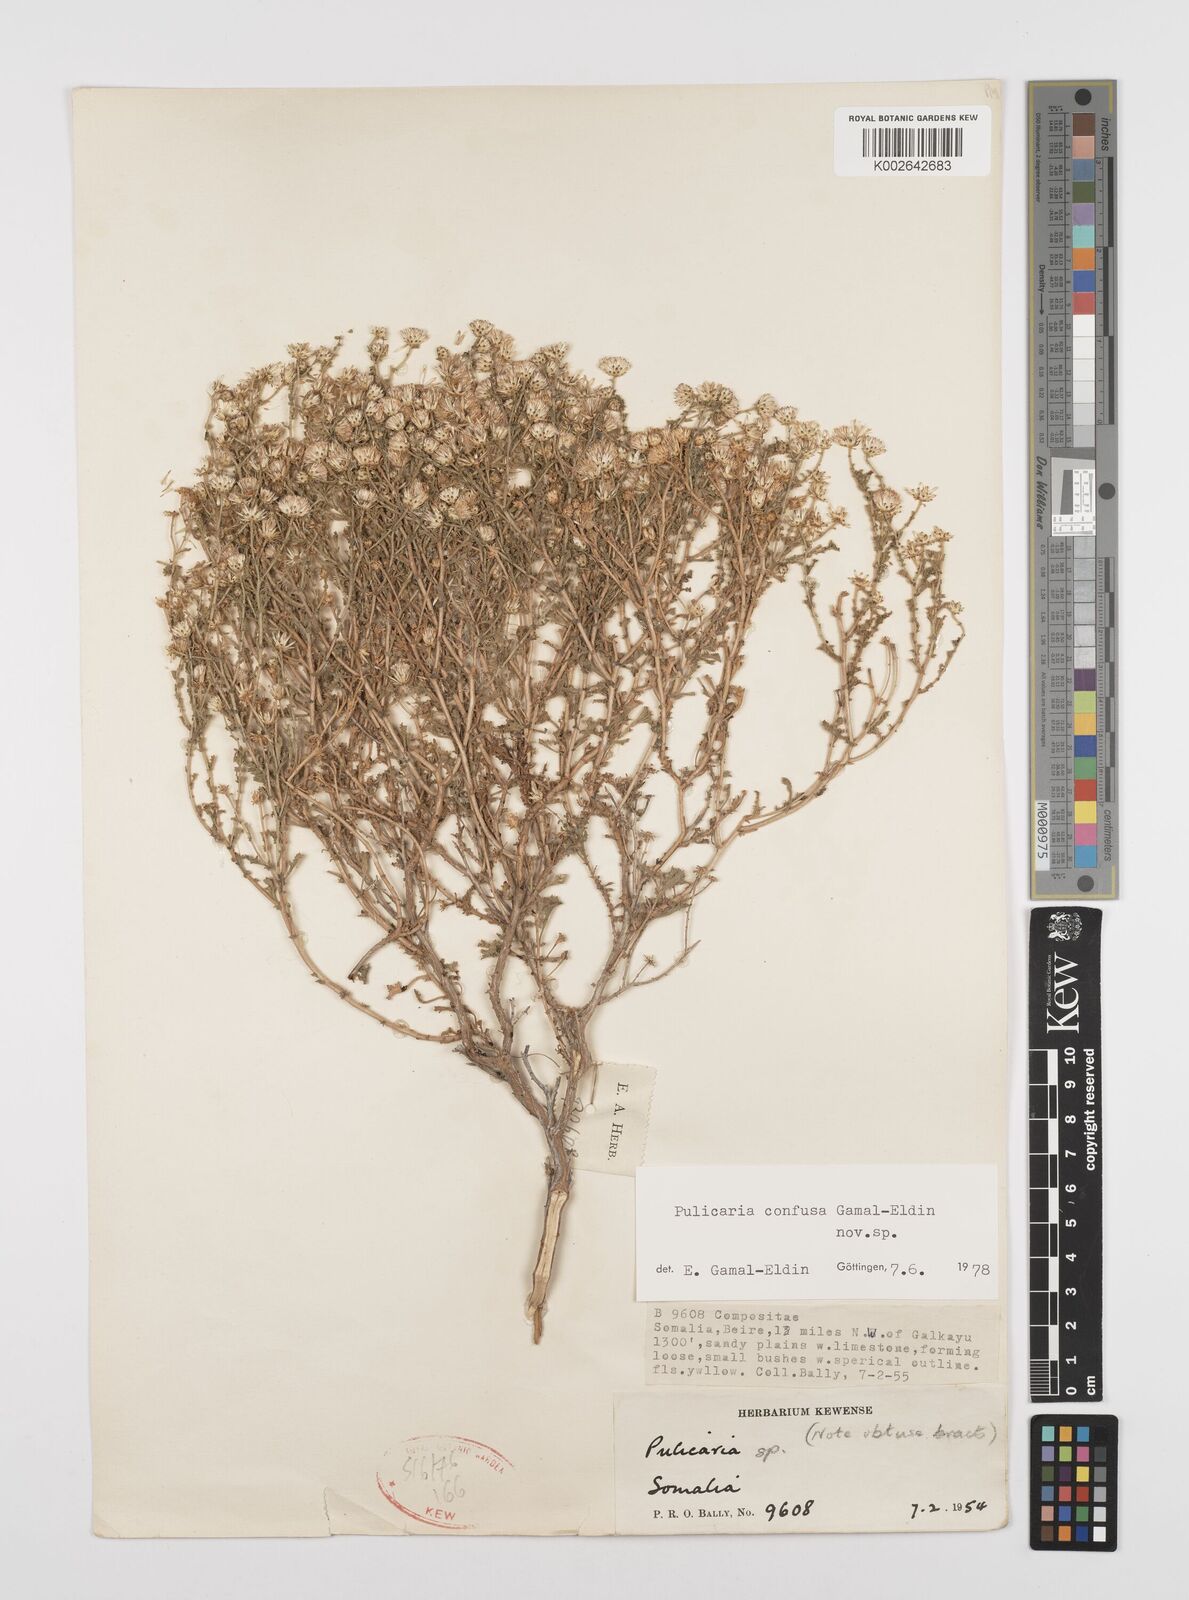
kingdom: Plantae
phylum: Tracheophyta
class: Magnoliopsida
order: Asterales
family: Asteraceae
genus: Pulicaria
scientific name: Pulicaria confusa
